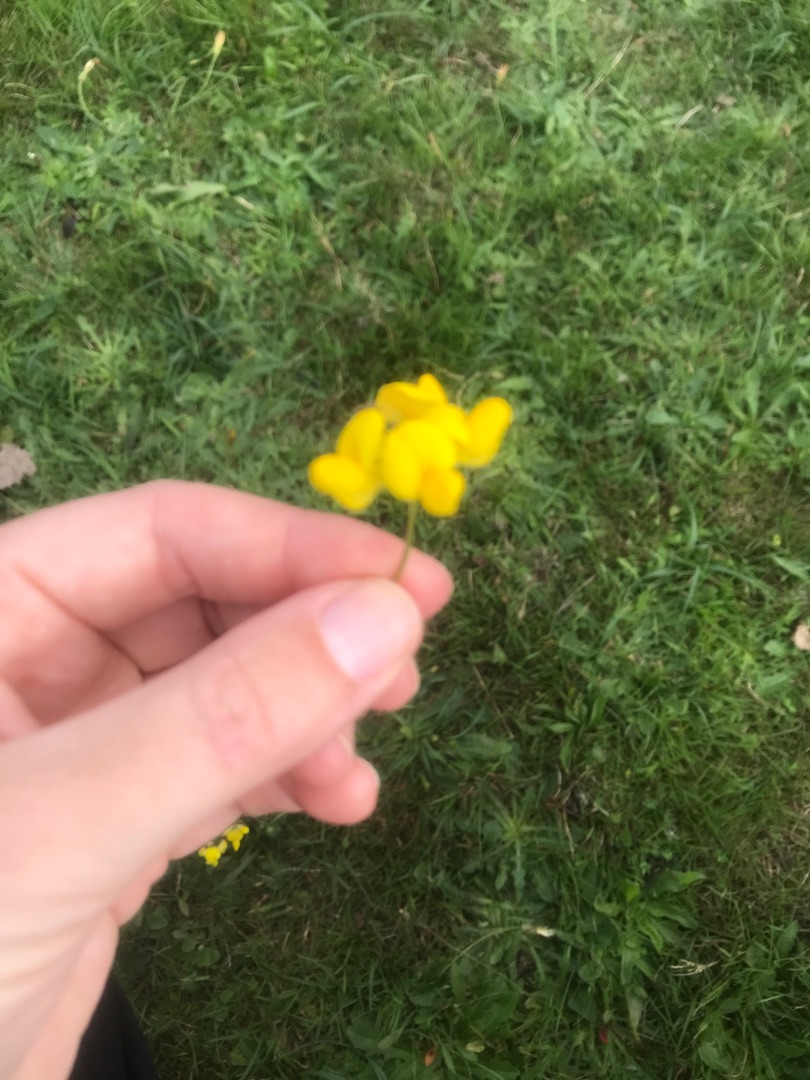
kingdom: Plantae
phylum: Tracheophyta
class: Magnoliopsida
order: Fabales
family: Fabaceae
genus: Lotus
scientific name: Lotus
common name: Kællingetandslægten
